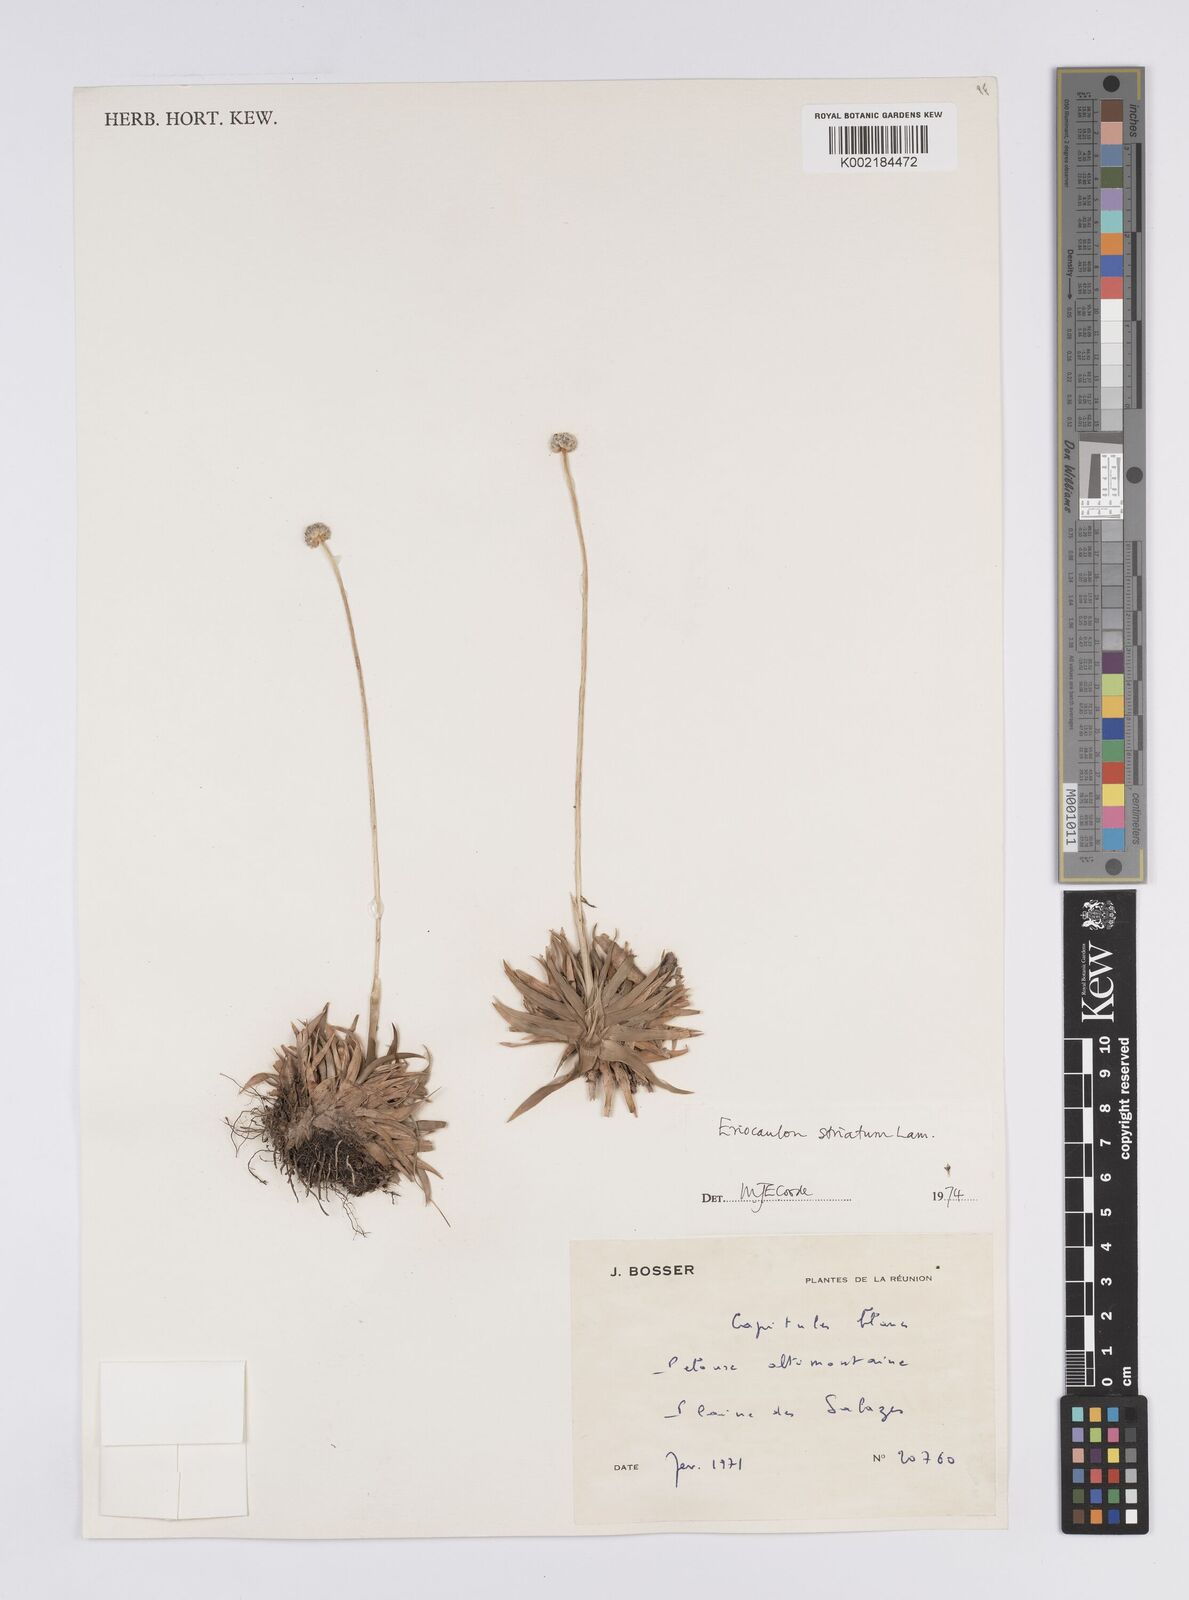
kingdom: Plantae
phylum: Tracheophyta
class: Liliopsida
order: Poales
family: Eriocaulaceae
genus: Eriocaulon
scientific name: Eriocaulon striatum
